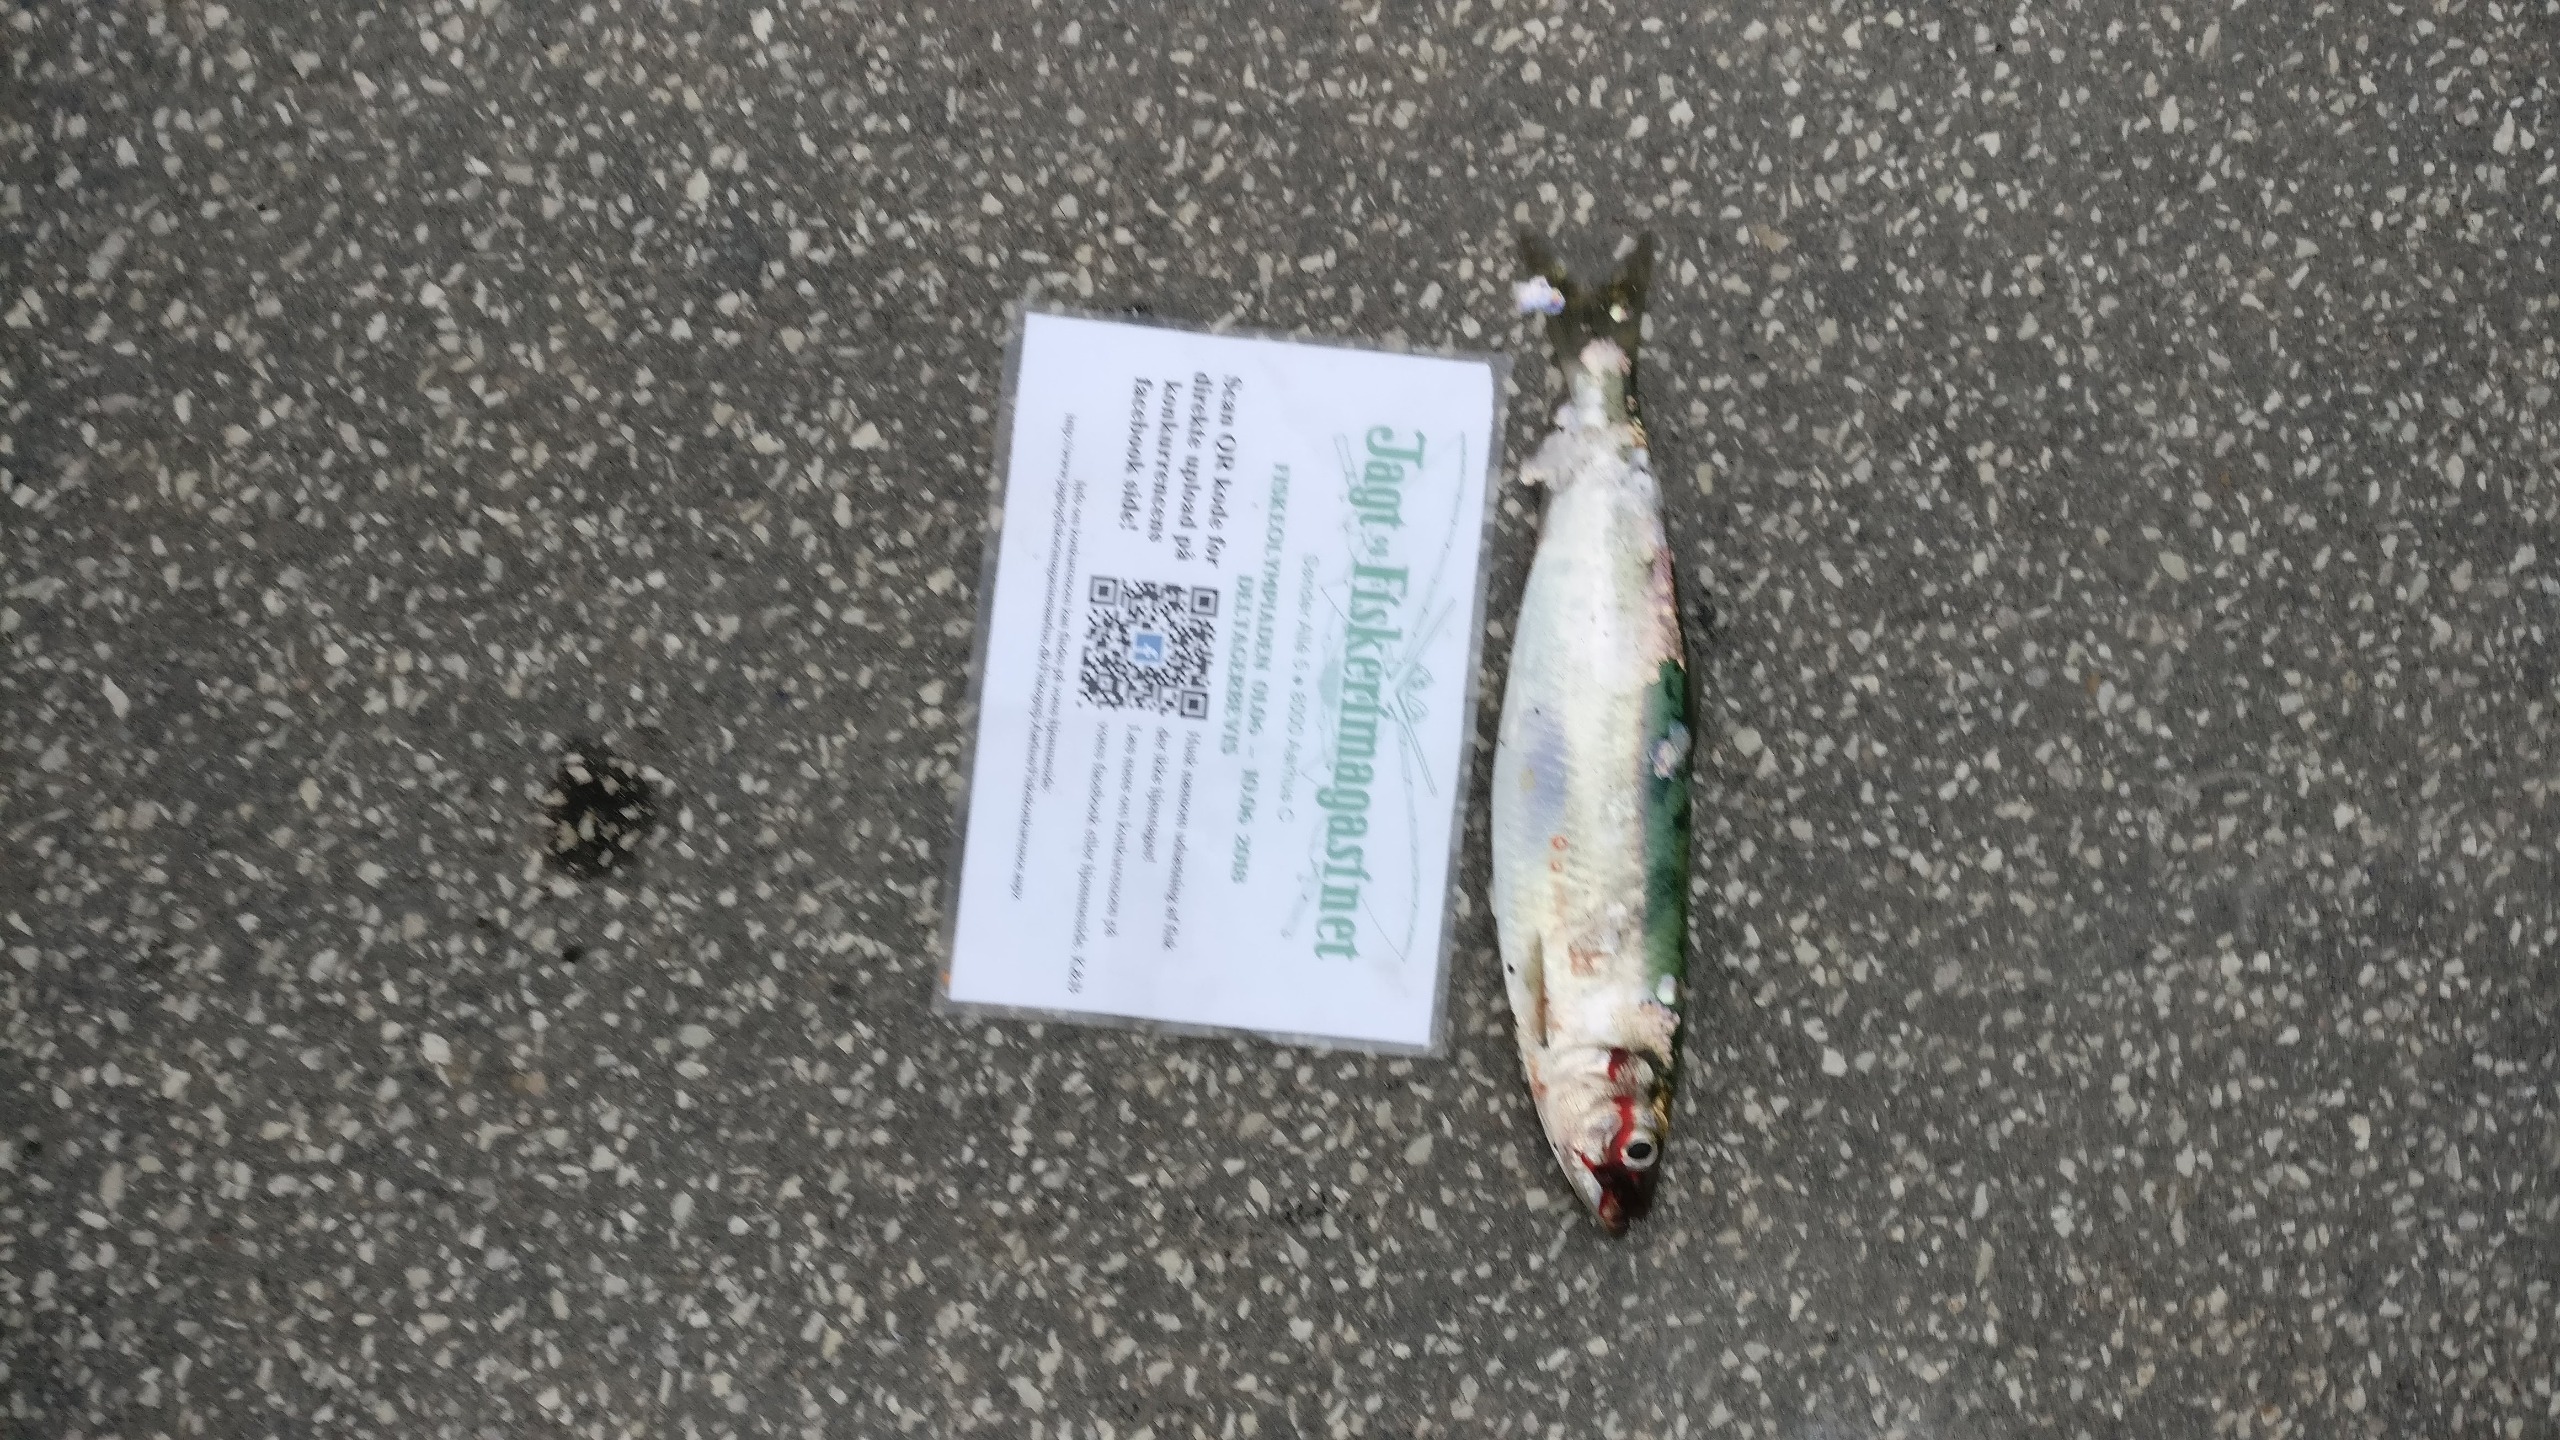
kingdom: Animalia
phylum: Chordata
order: Clupeiformes
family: Clupeidae
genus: Clupea
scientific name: Clupea harengus
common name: Sild
